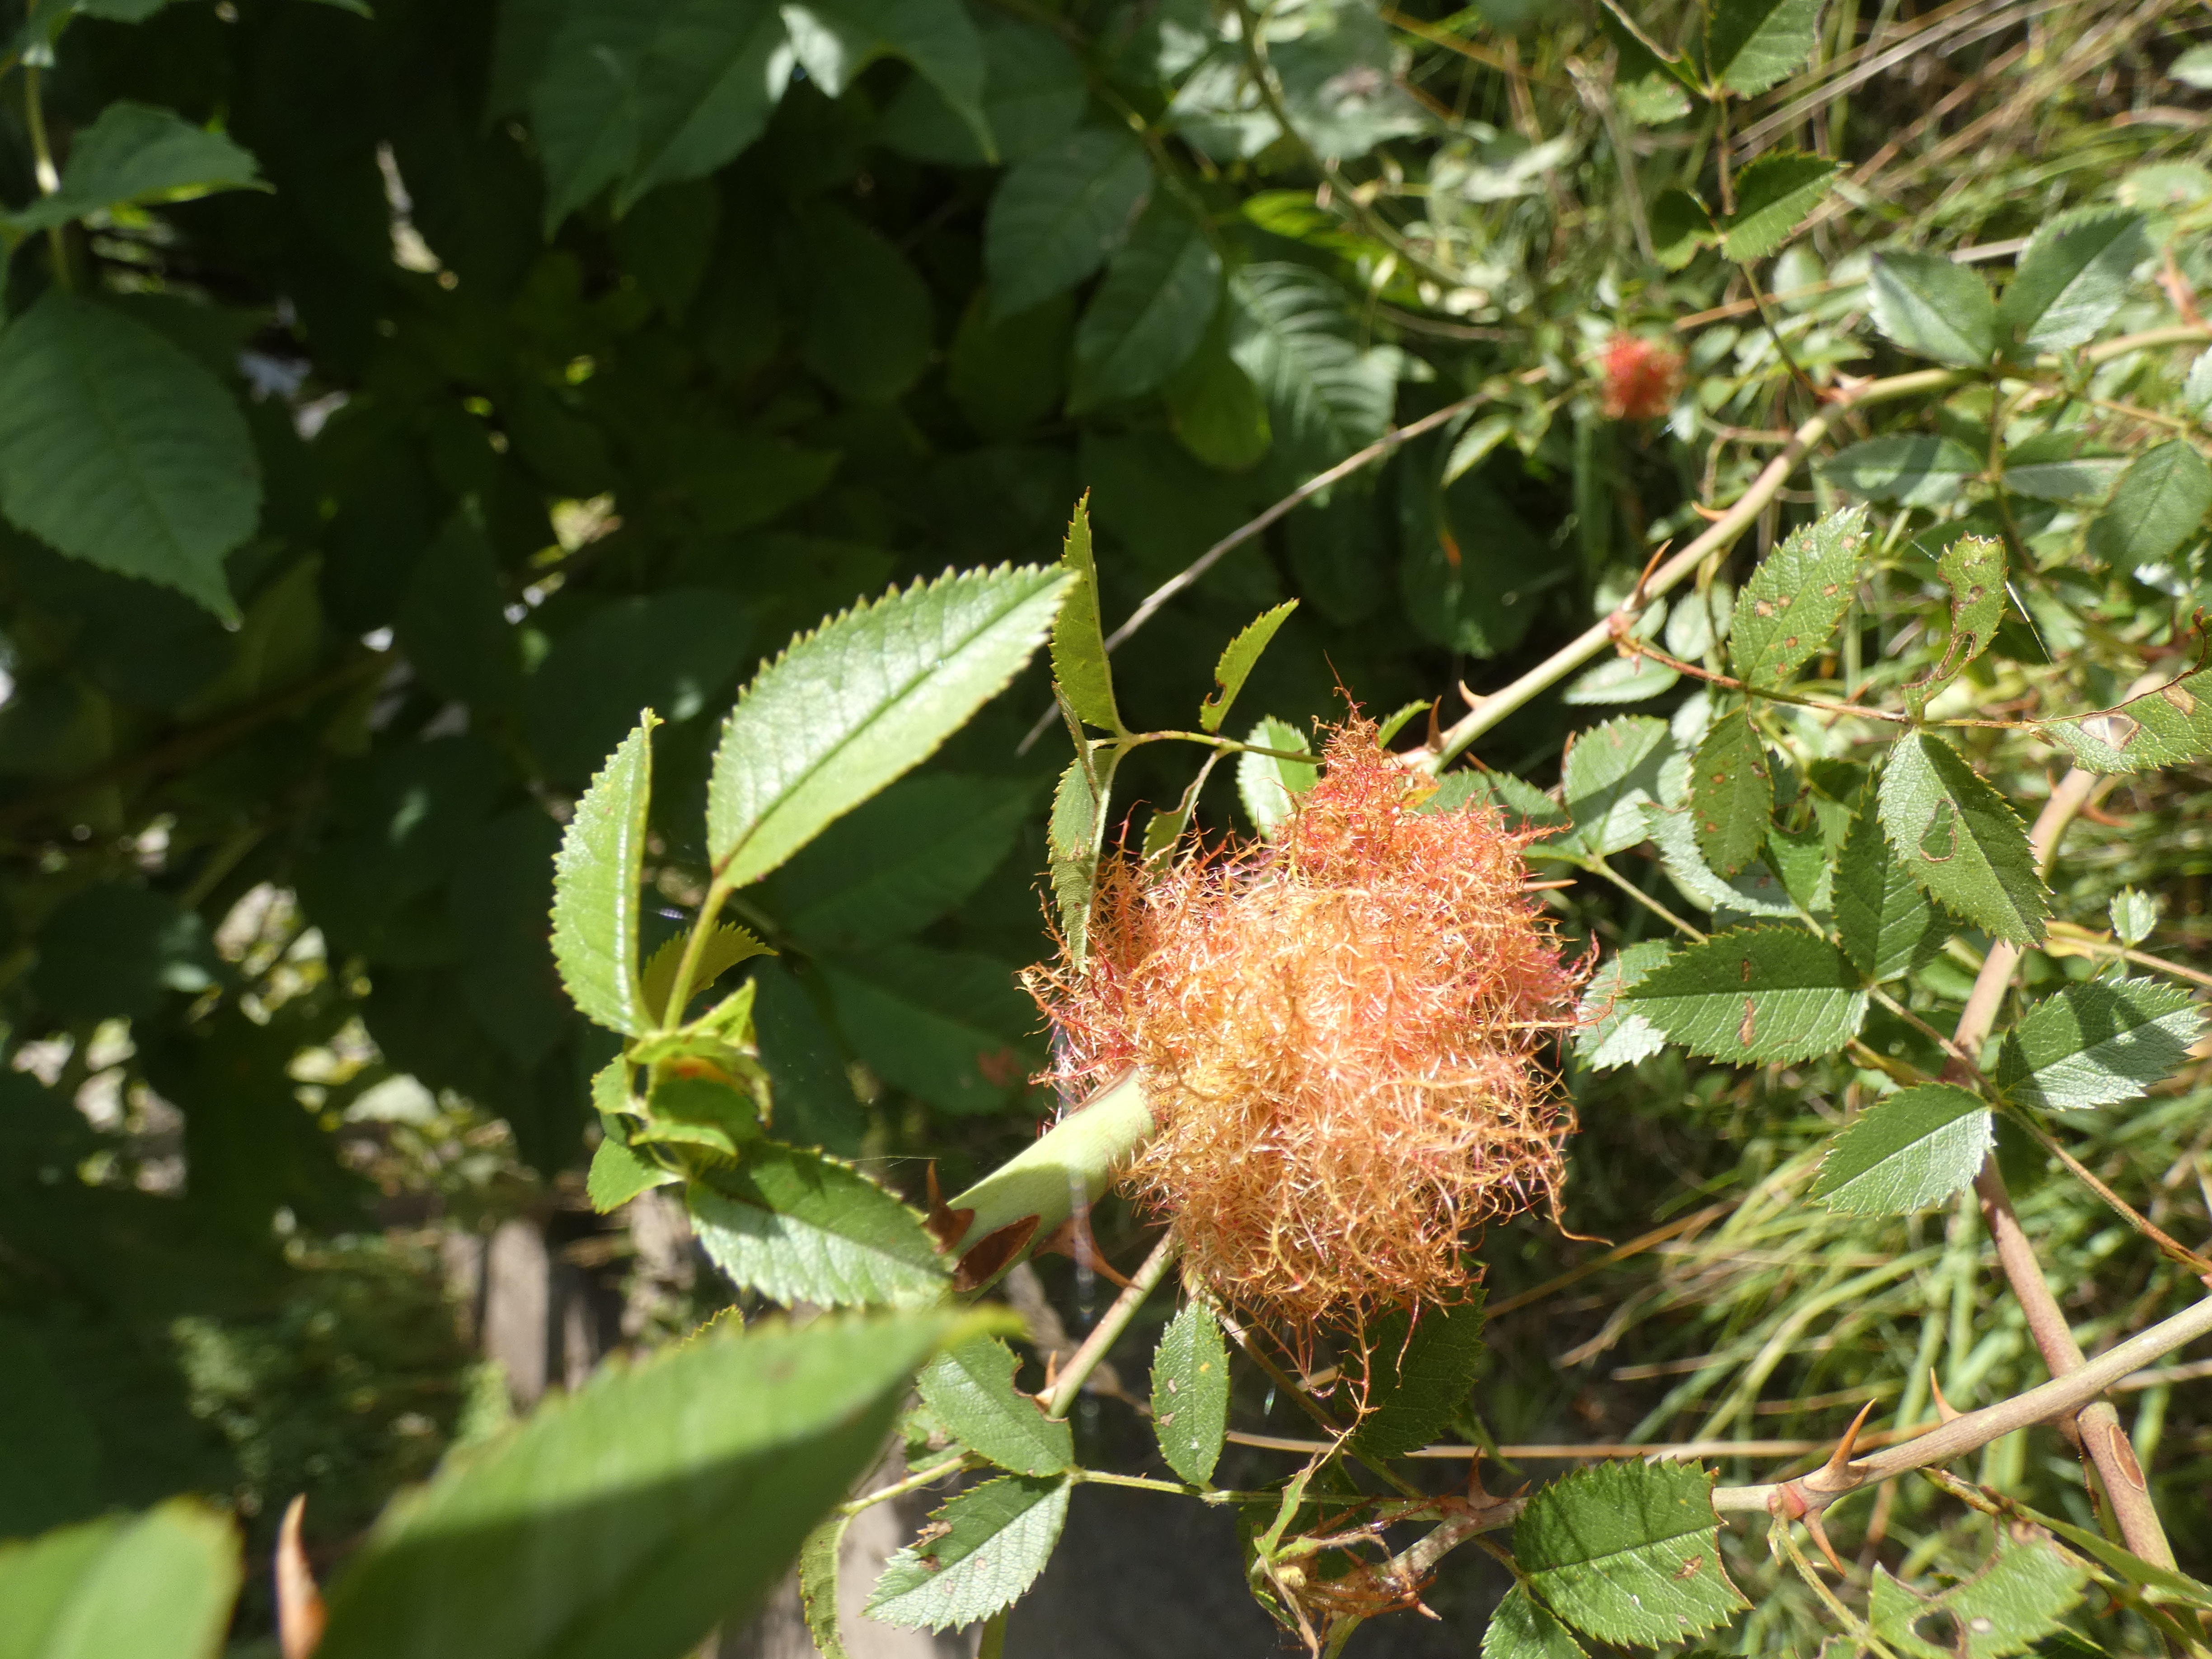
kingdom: Animalia
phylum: Arthropoda
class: Insecta
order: Hymenoptera
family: Cynipidae
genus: Diplolepis
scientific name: Diplolepis rosae
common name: Bedeguargalhveps
